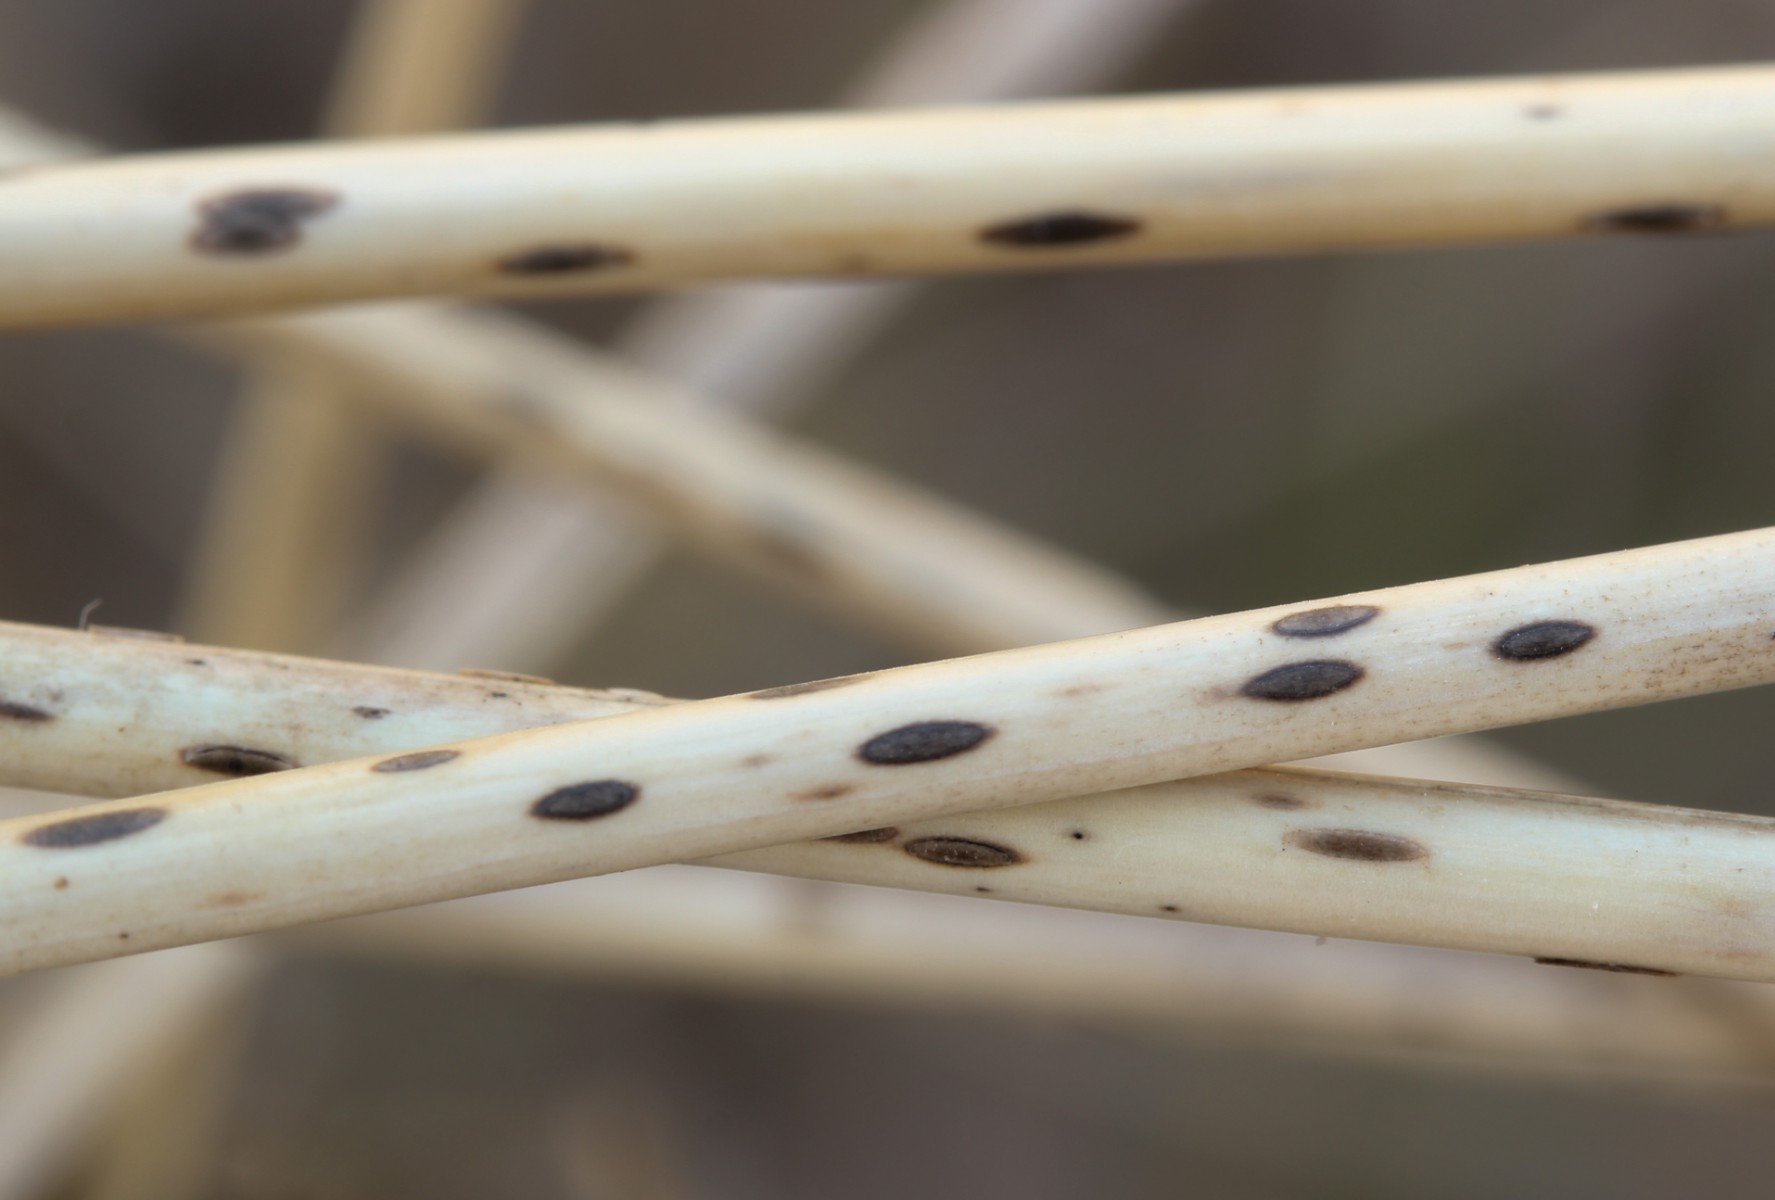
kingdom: Fungi
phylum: Ascomycota
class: Leotiomycetes
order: Helotiales
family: Dermateaceae
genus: Hysterostegiella
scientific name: Hysterostegiella valvata
